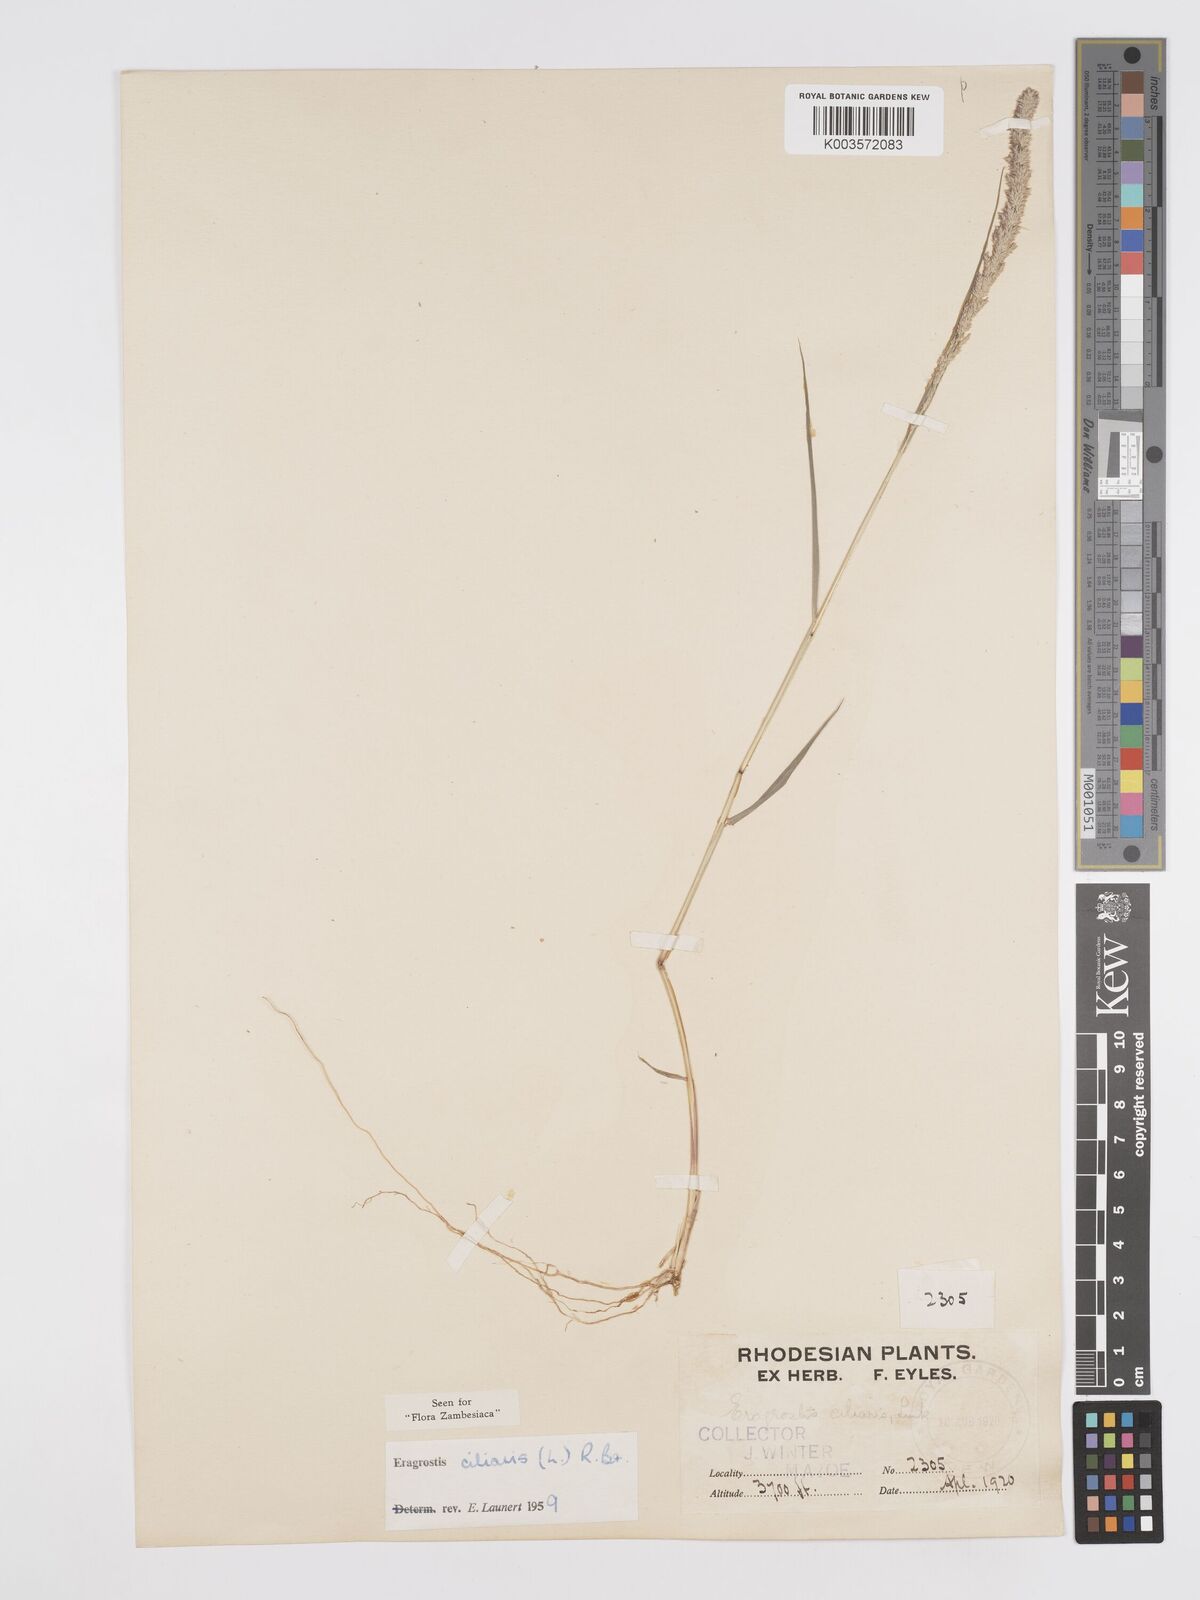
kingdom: Plantae
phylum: Tracheophyta
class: Liliopsida
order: Poales
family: Poaceae
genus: Eragrostis
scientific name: Eragrostis ciliaris
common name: Gophertail lovegrass
